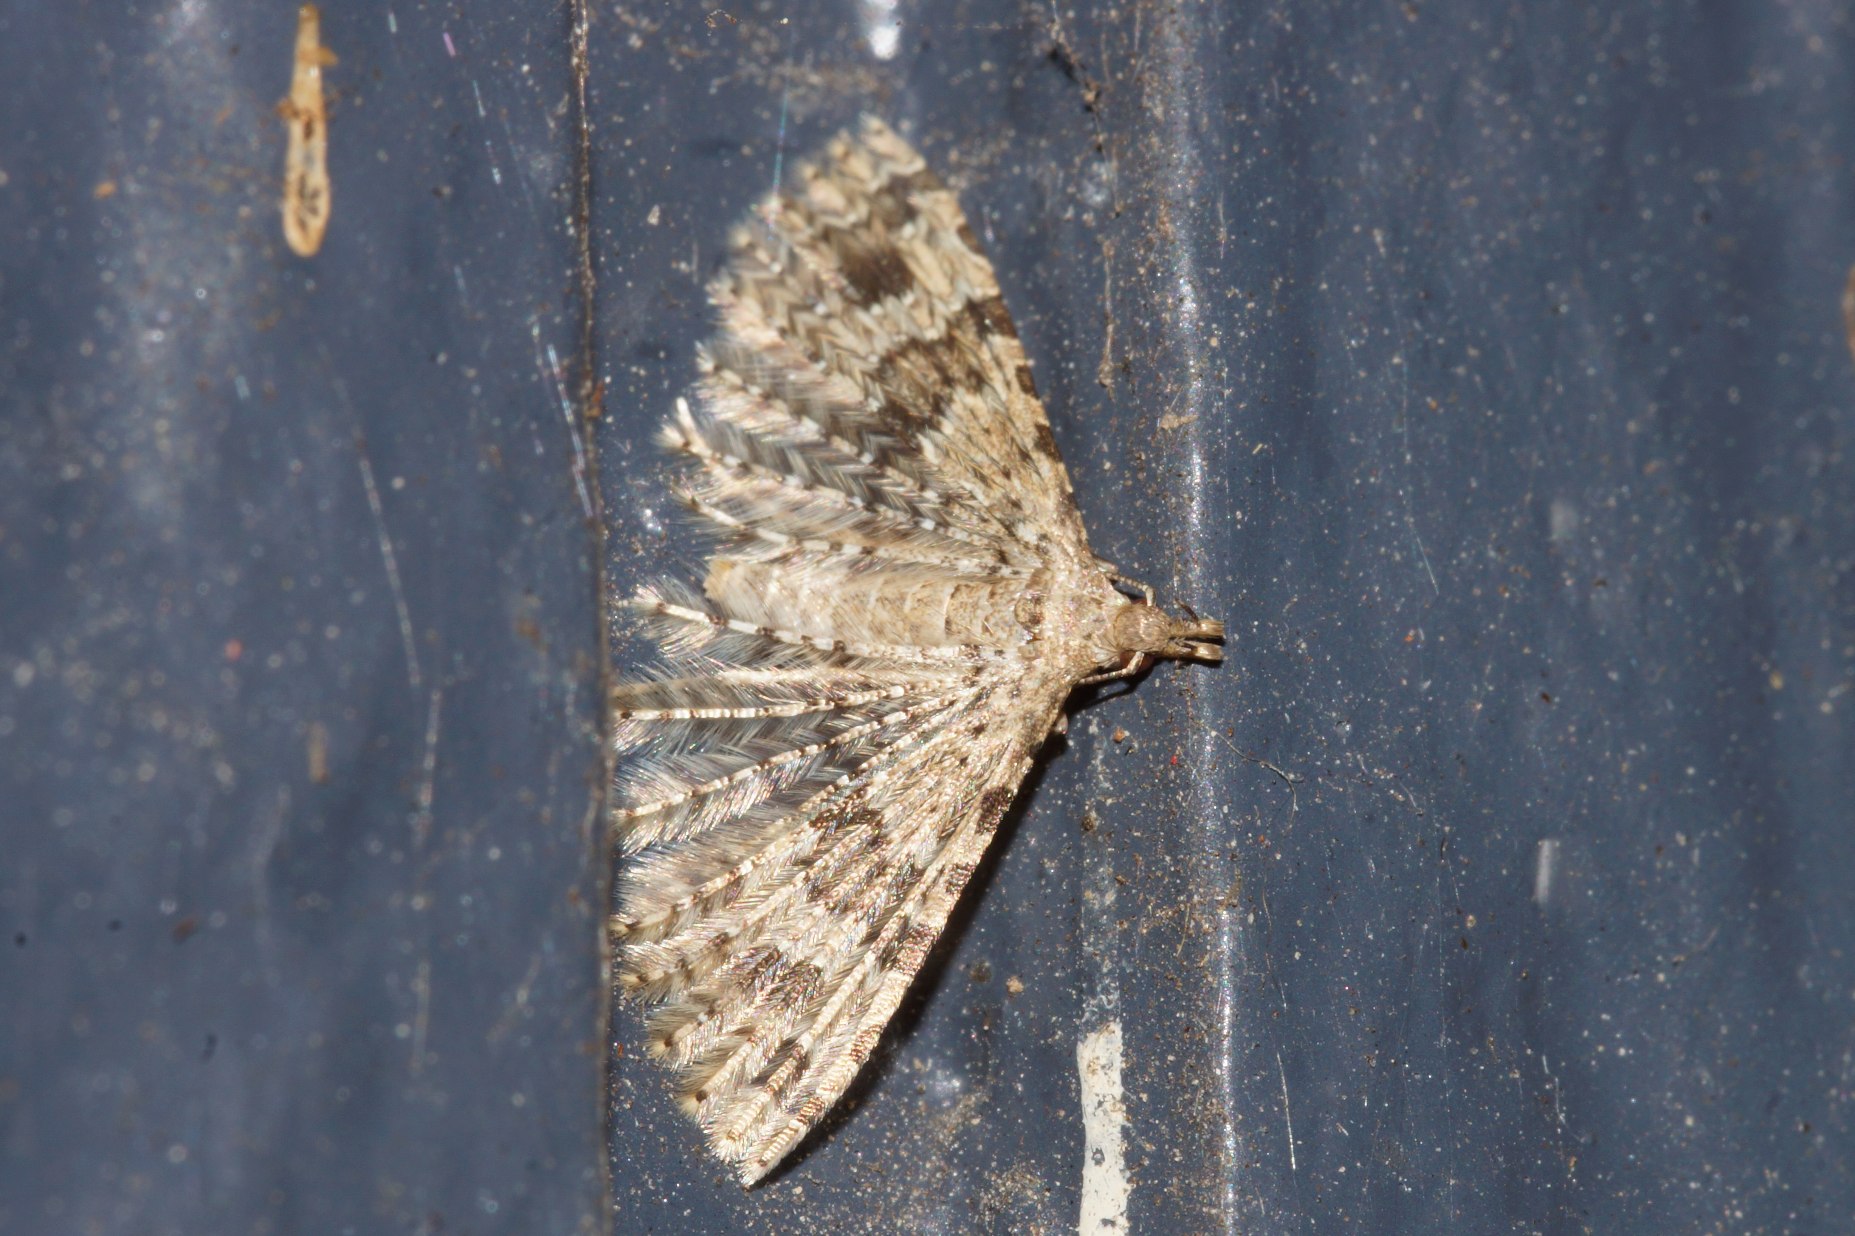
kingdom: Animalia
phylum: Arthropoda
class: Insecta
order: Lepidoptera
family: Alucitidae
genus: Alucita
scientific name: Alucita hexadactyla
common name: Kaprifoliefjermøl
